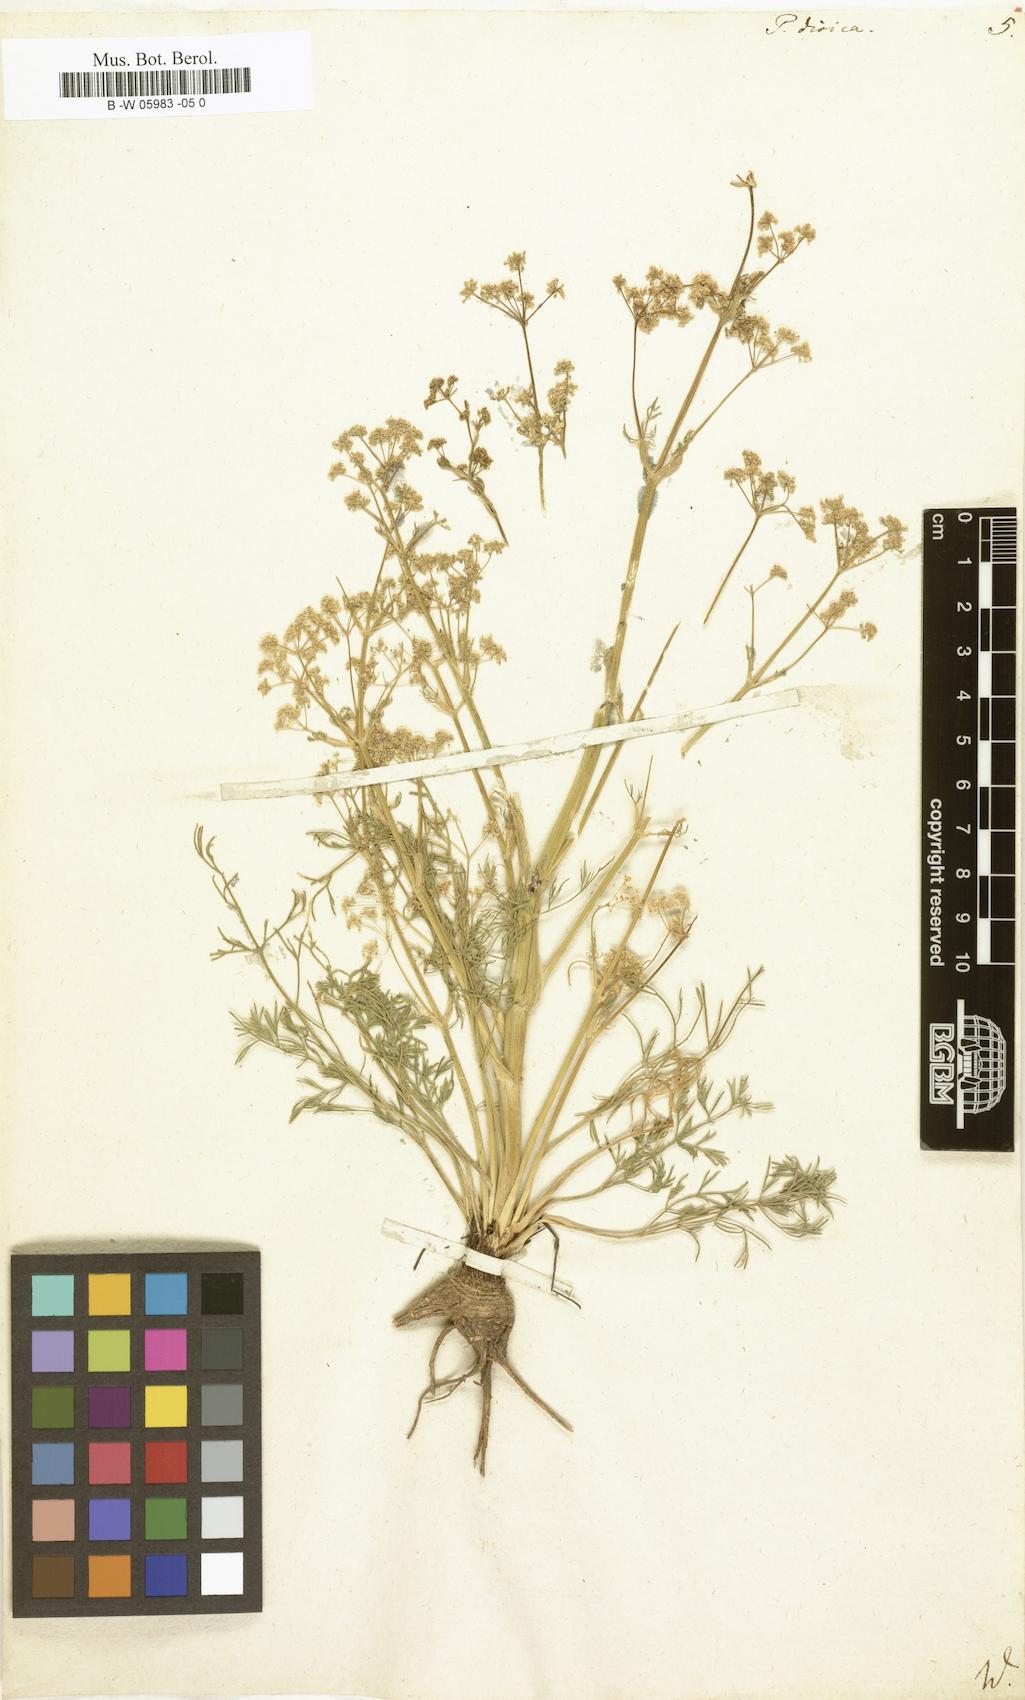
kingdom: Plantae
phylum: Tracheophyta
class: Magnoliopsida
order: Apiales
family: Apiaceae
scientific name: Apiaceae
